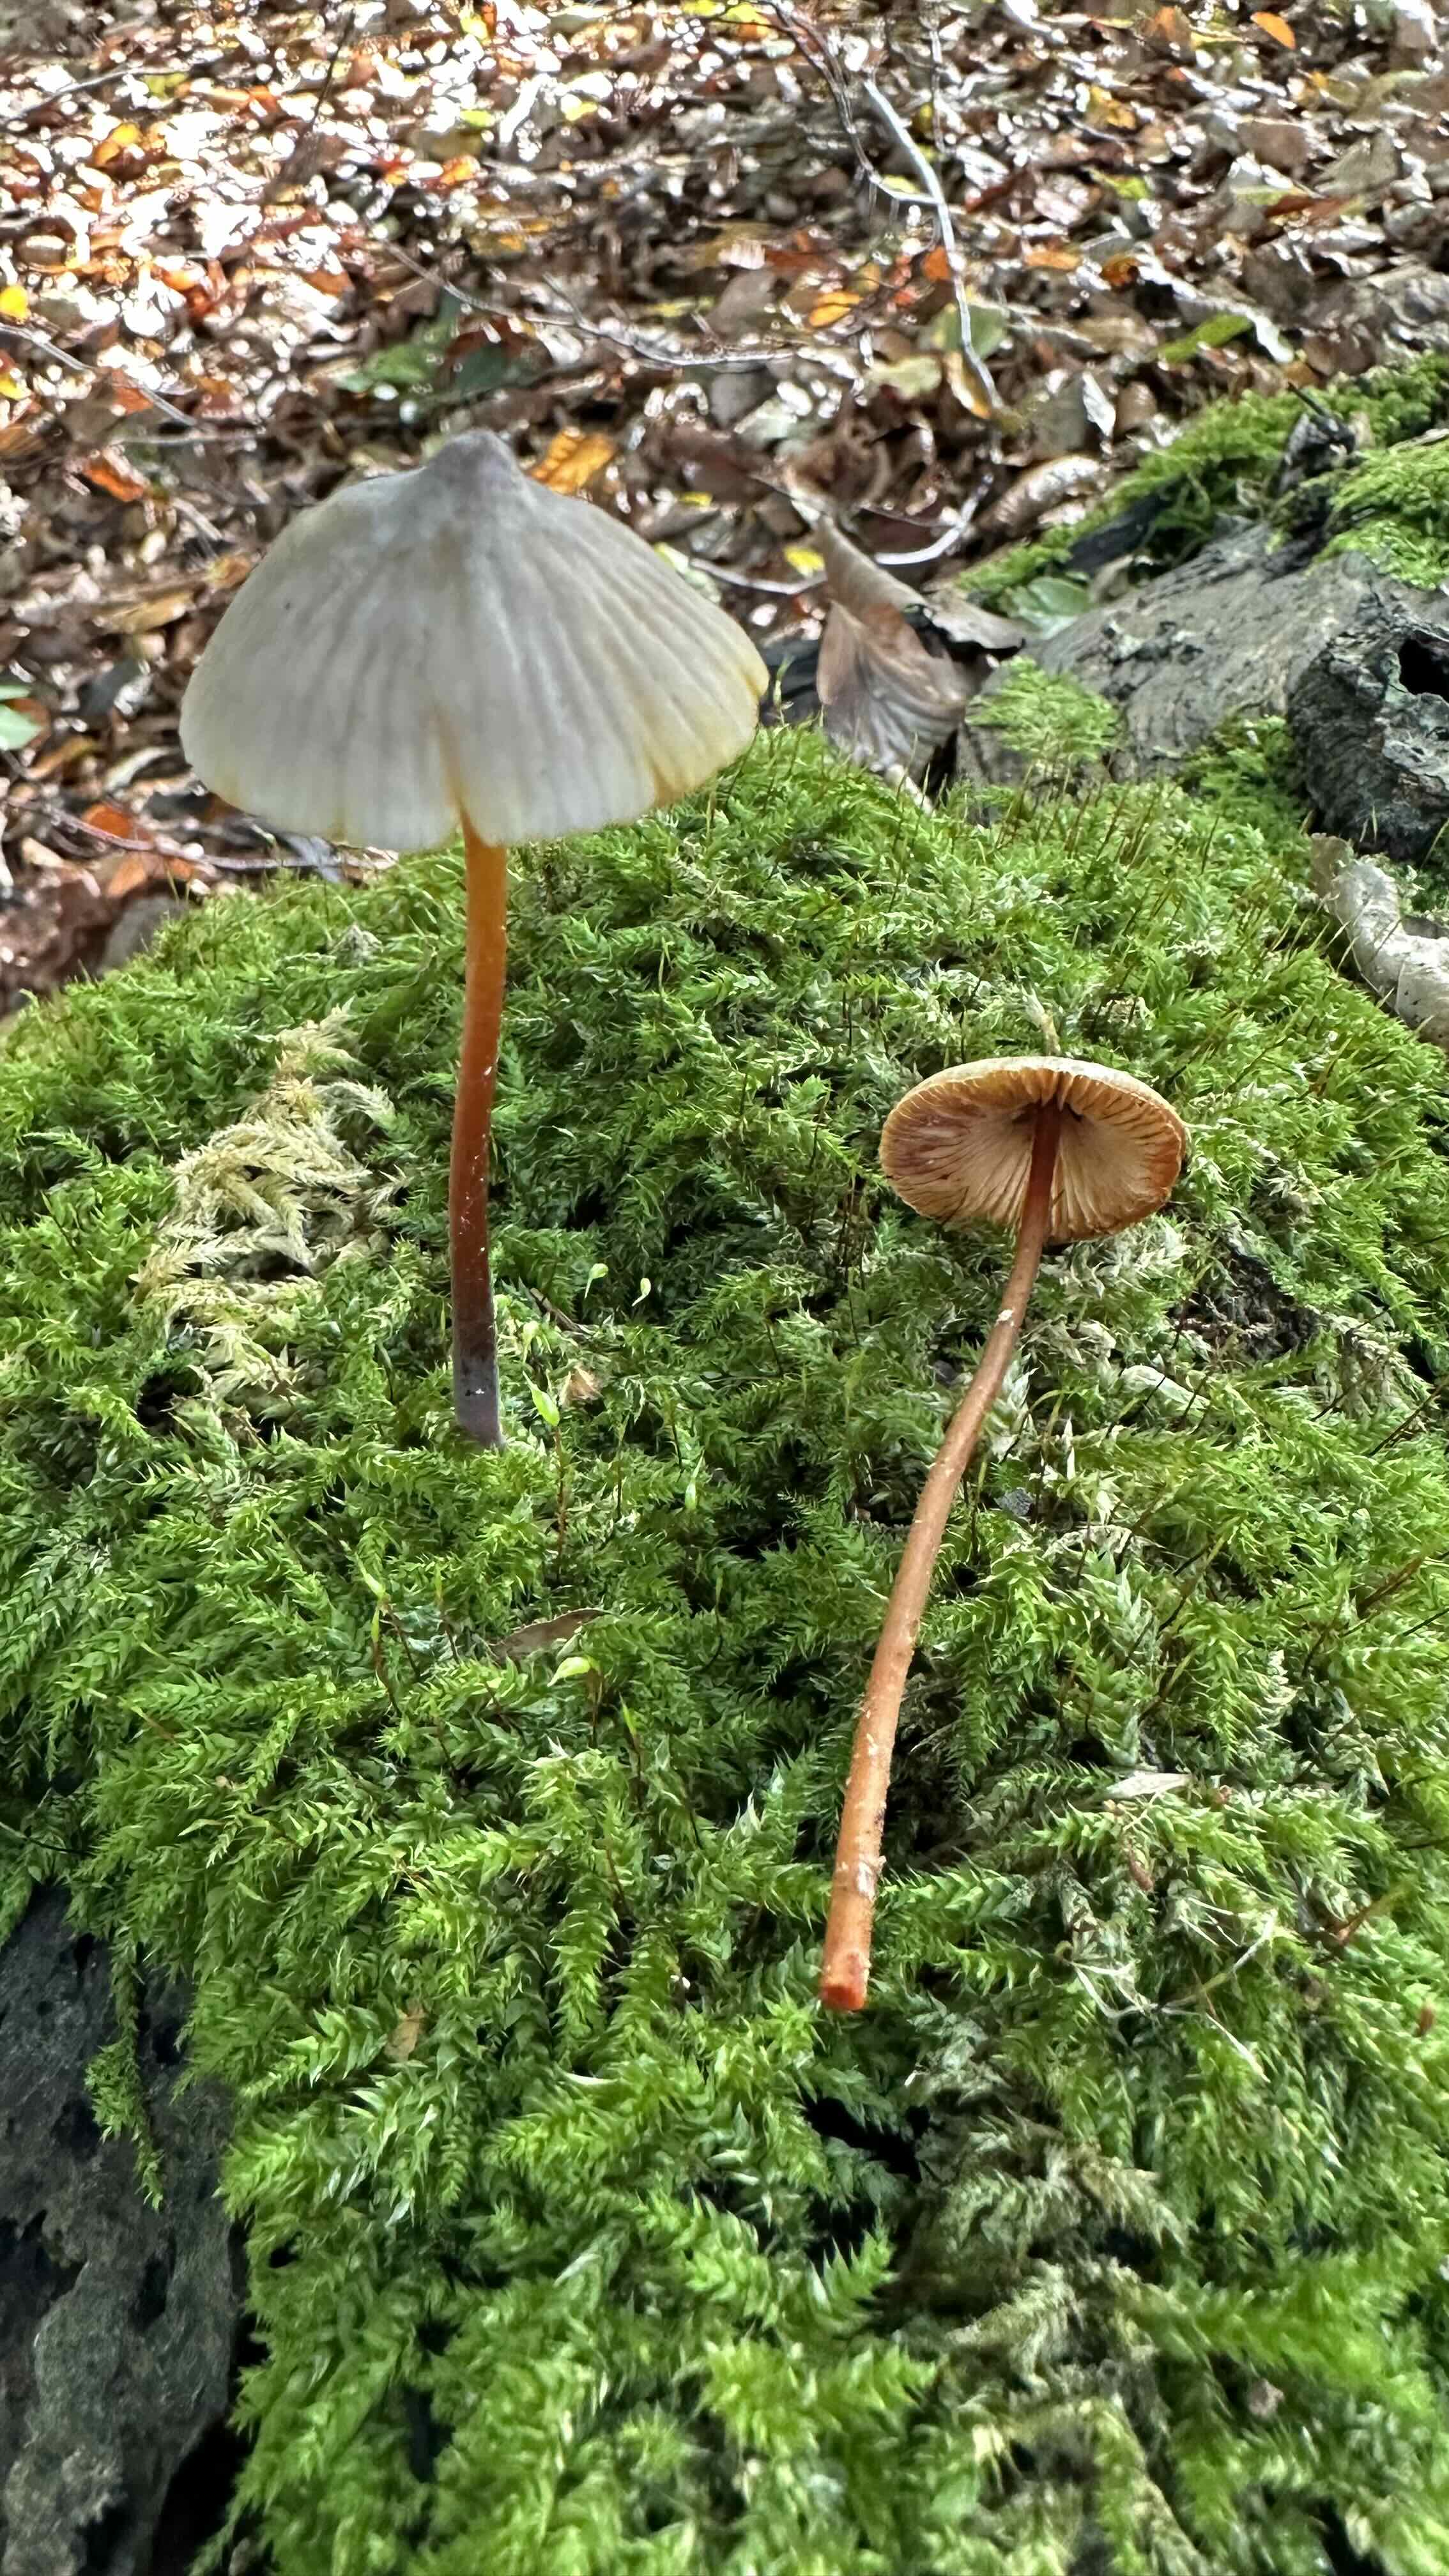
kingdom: Fungi
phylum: Basidiomycota
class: Agaricomycetes
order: Agaricales
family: Mycenaceae
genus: Mycena
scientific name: Mycena crocata
